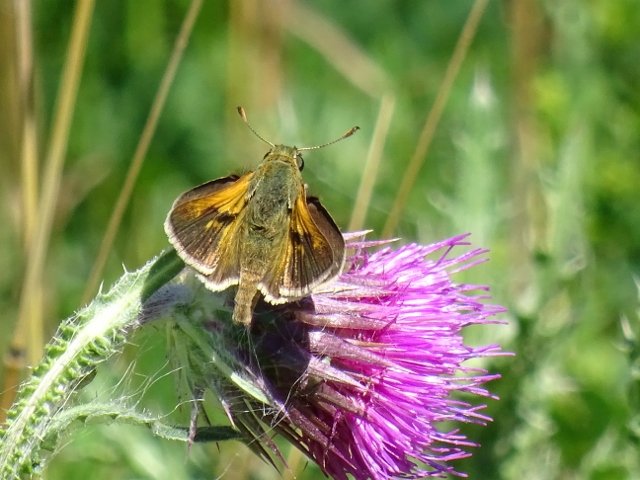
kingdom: Animalia
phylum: Arthropoda
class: Insecta
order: Lepidoptera
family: Hesperiidae
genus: Polites
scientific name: Polites
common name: Long Dash Skipper
